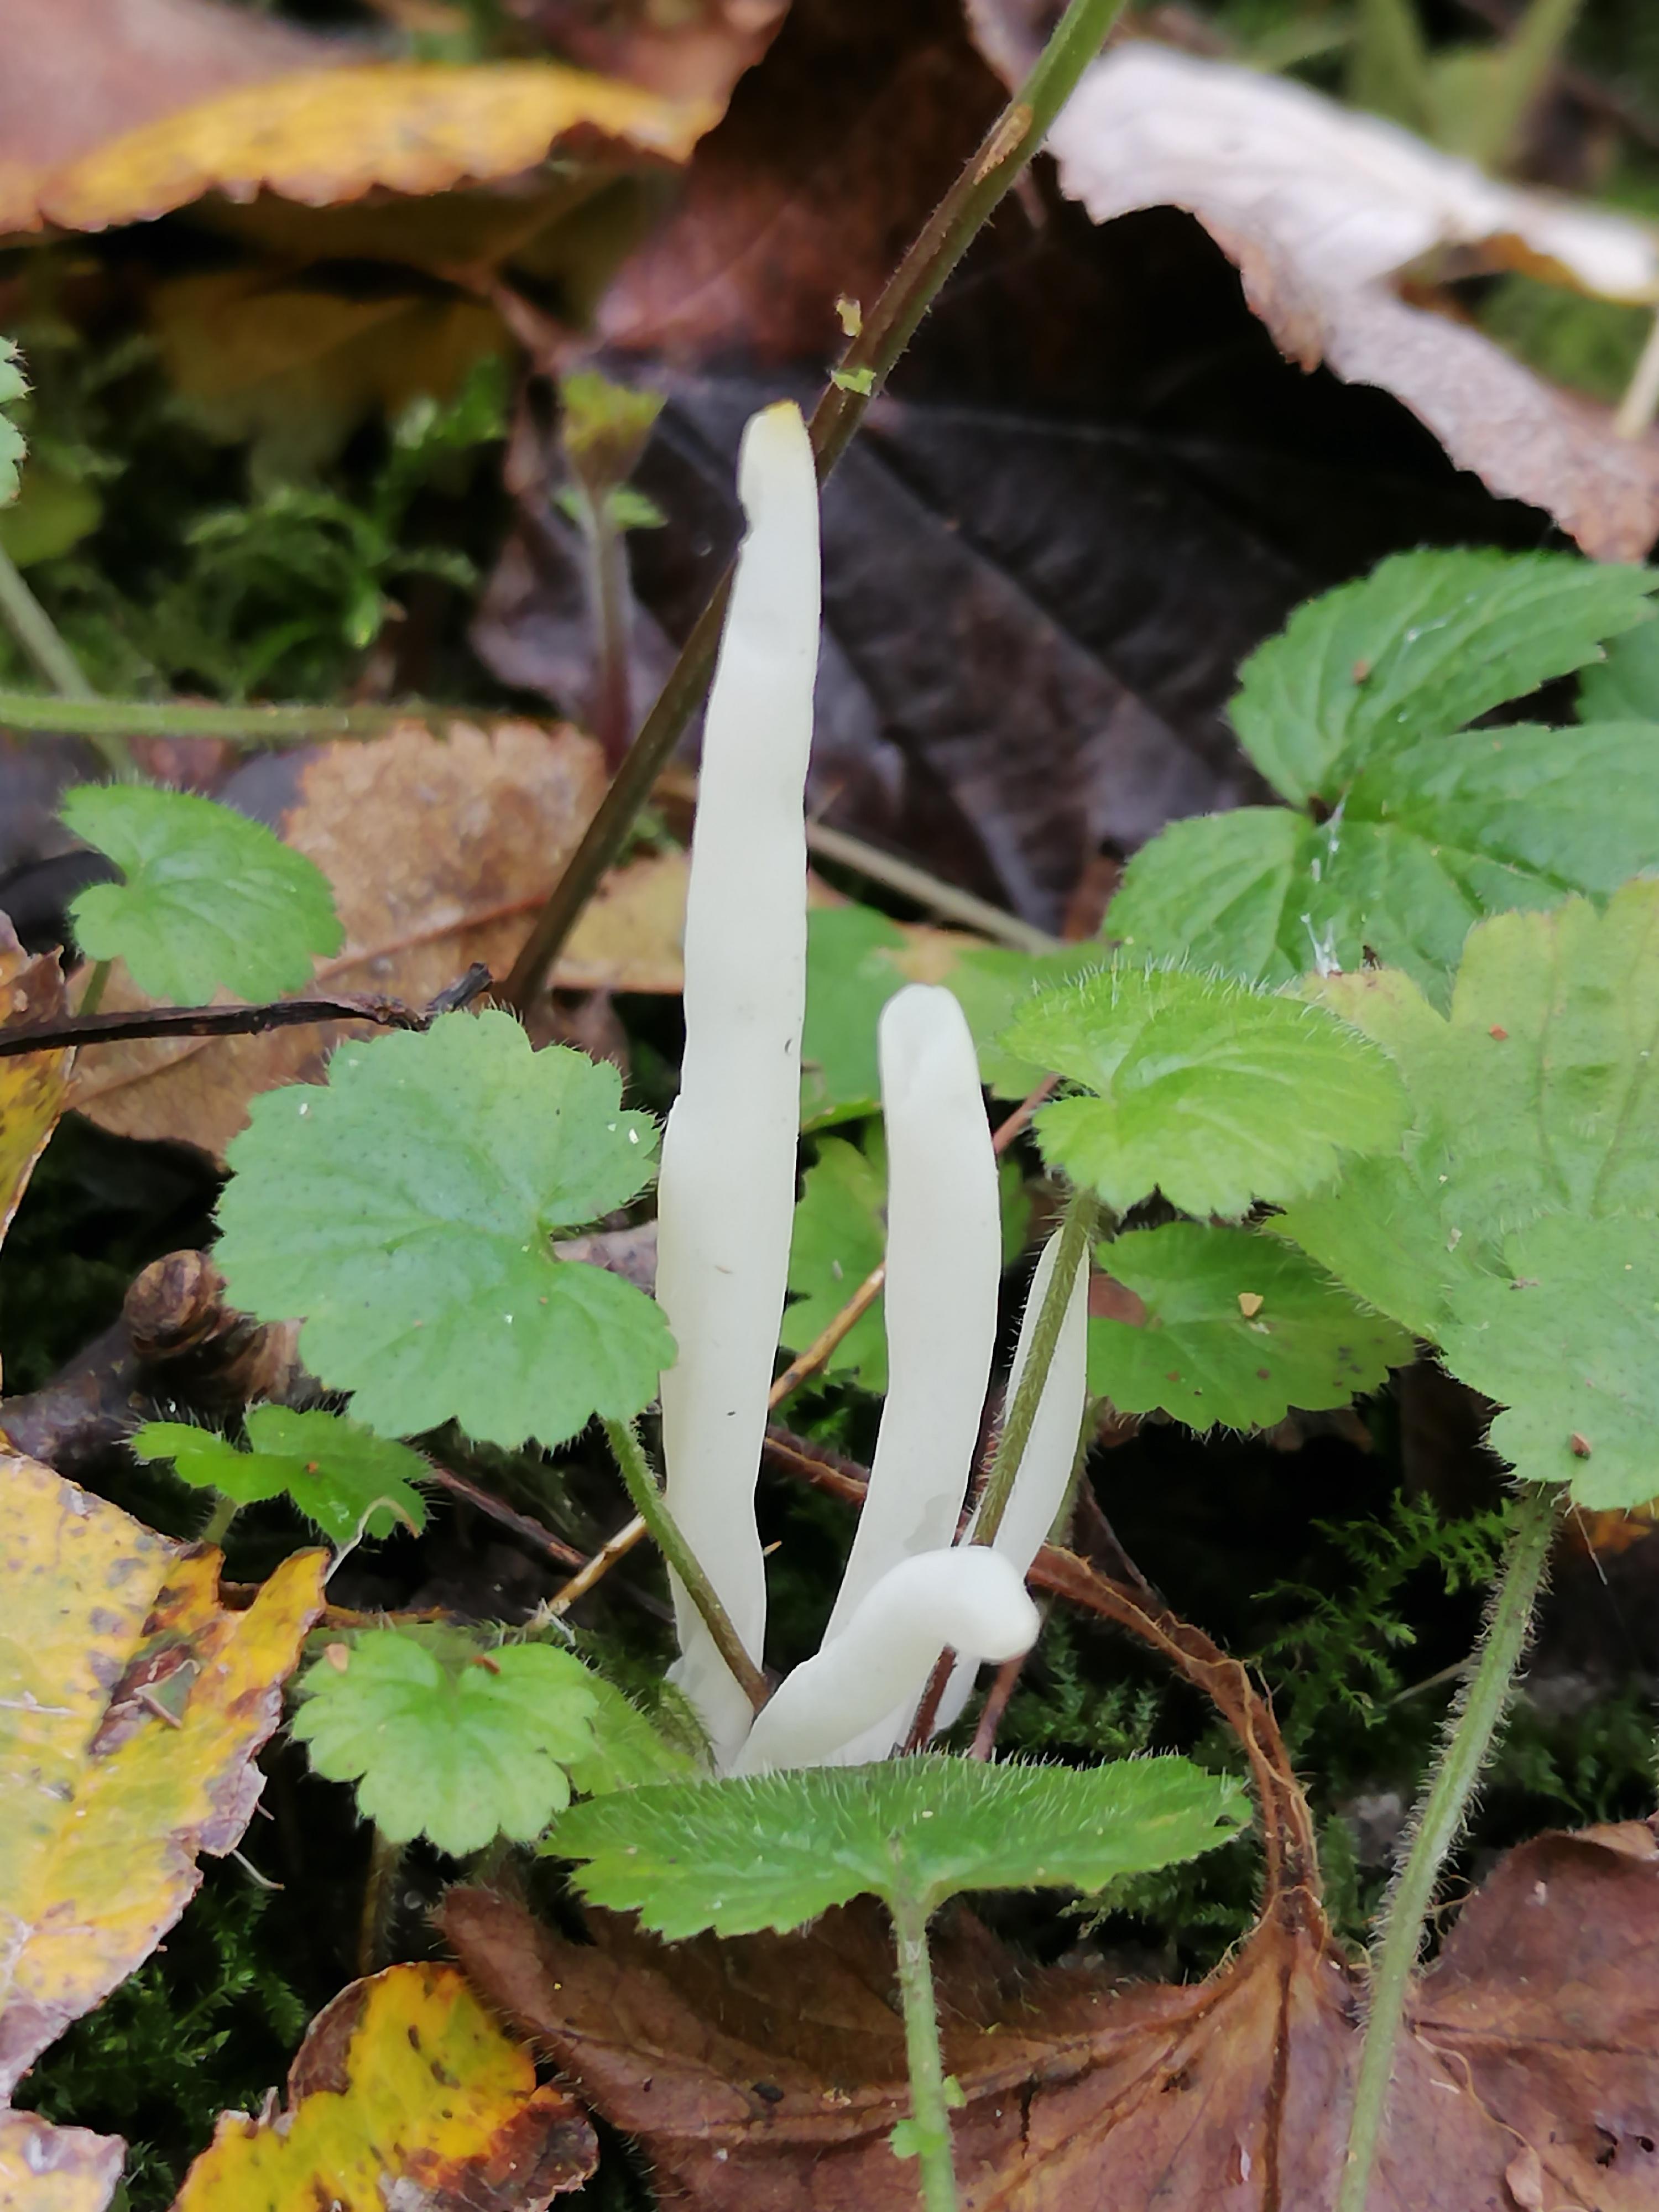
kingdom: Fungi
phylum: Basidiomycota
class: Agaricomycetes
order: Agaricales
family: Clavariaceae
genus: Clavaria
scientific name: Clavaria falcata
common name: hvid køllesvamp
